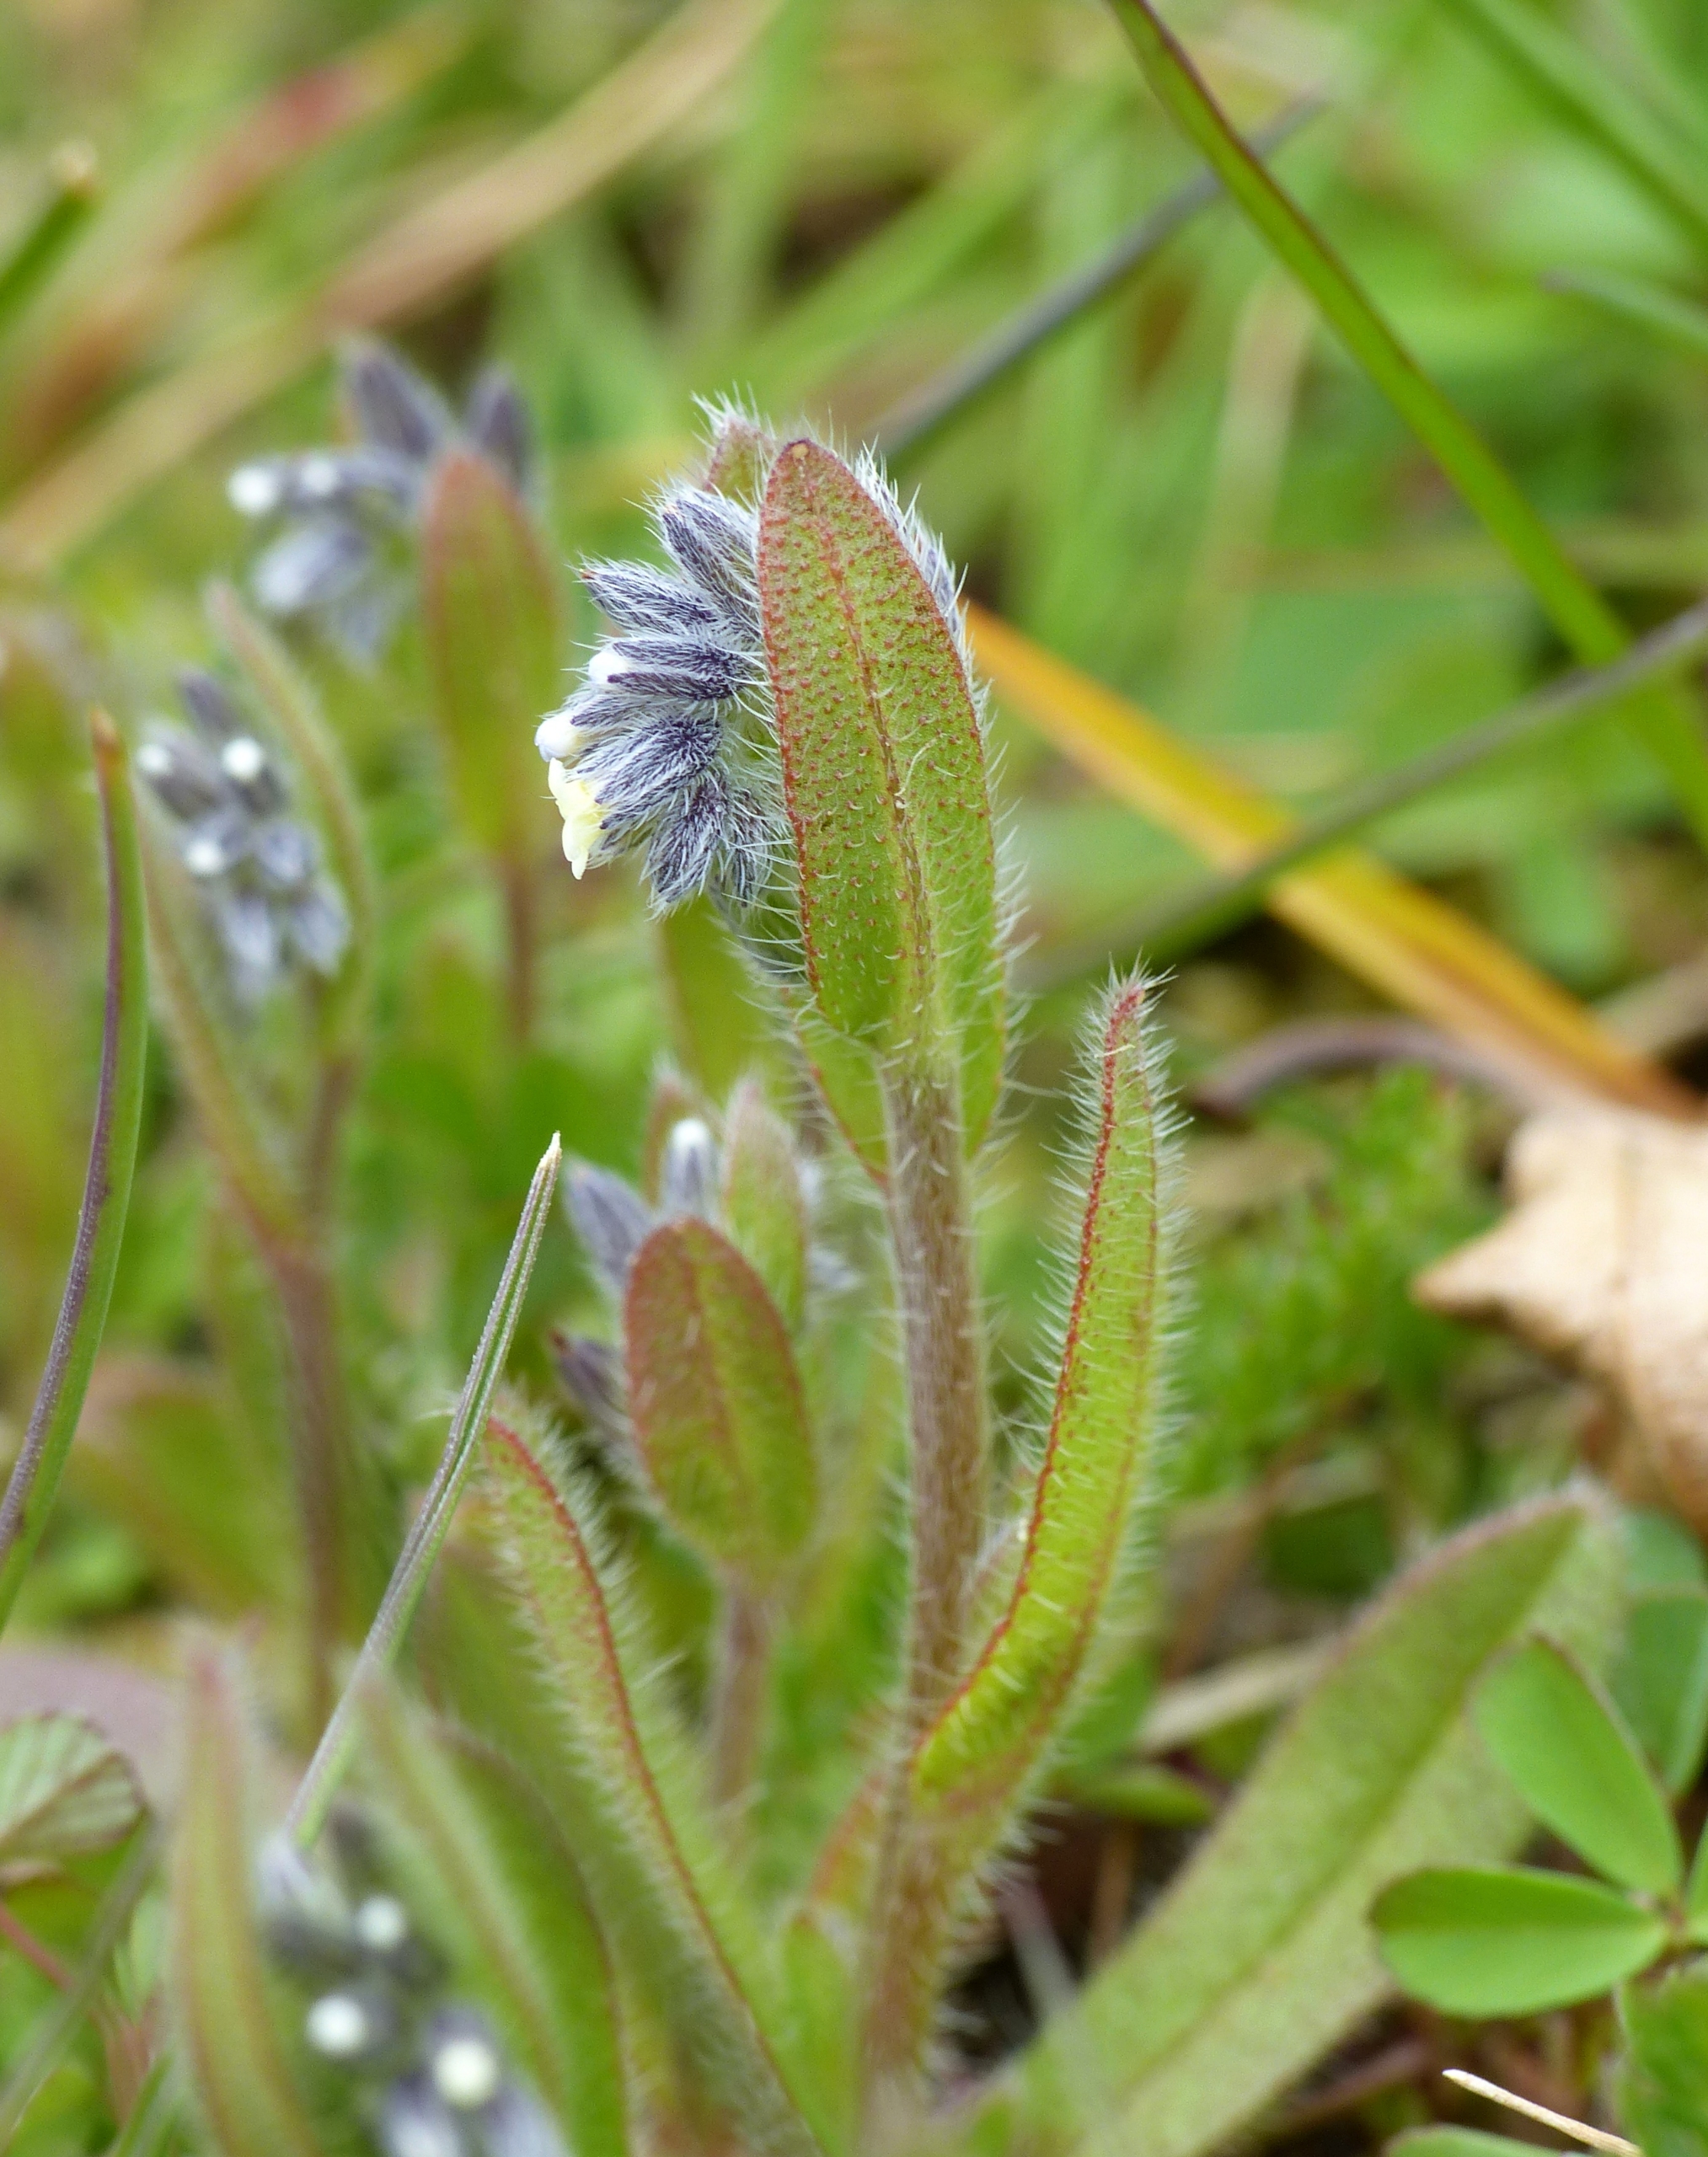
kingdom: Plantae
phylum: Tracheophyta
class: Magnoliopsida
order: Boraginales
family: Boraginaceae
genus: Myosotis
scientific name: Myosotis discolor
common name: Forskelligfarvet forglemmigej
